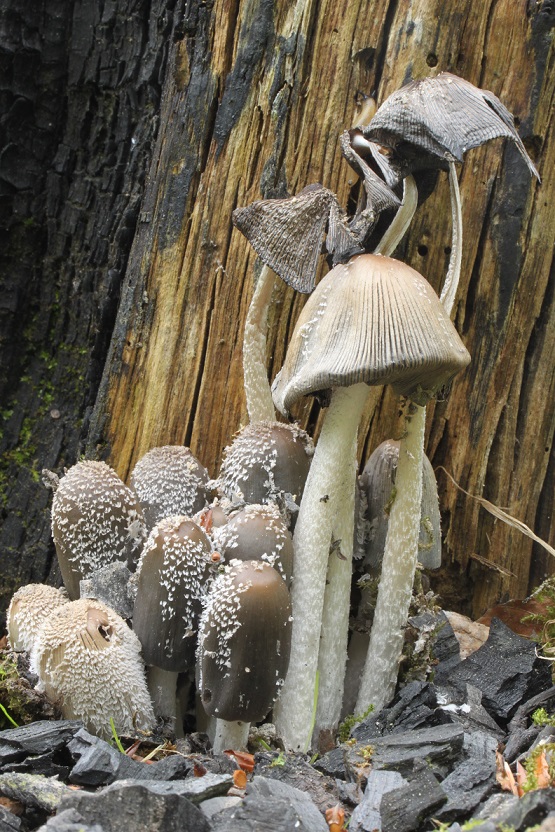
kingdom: Fungi
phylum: Basidiomycota
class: Agaricomycetes
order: Agaricales
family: Psathyrellaceae
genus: Coprinopsis
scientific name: Coprinopsis jonesii
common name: spættet blækhat
